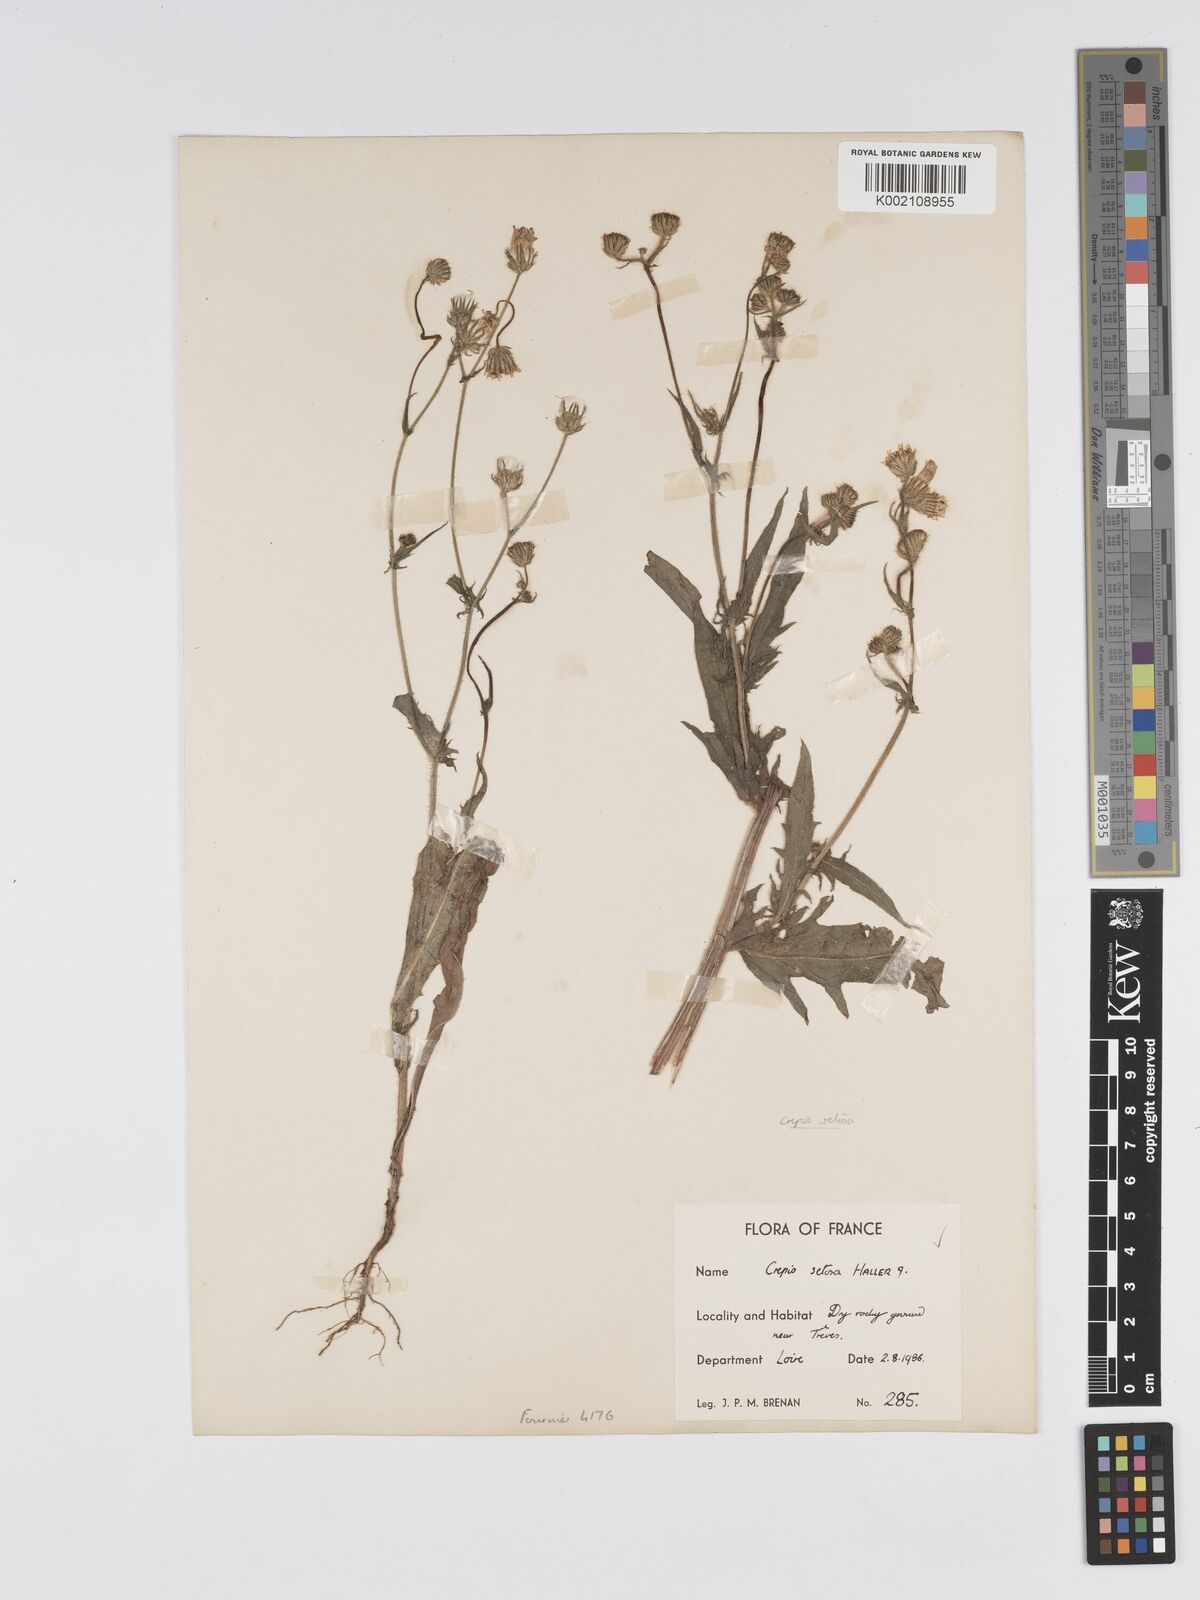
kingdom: Plantae
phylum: Tracheophyta
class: Magnoliopsida
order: Asterales
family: Asteraceae
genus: Crepis
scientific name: Crepis setosa
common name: Bristly hawk's-beard
